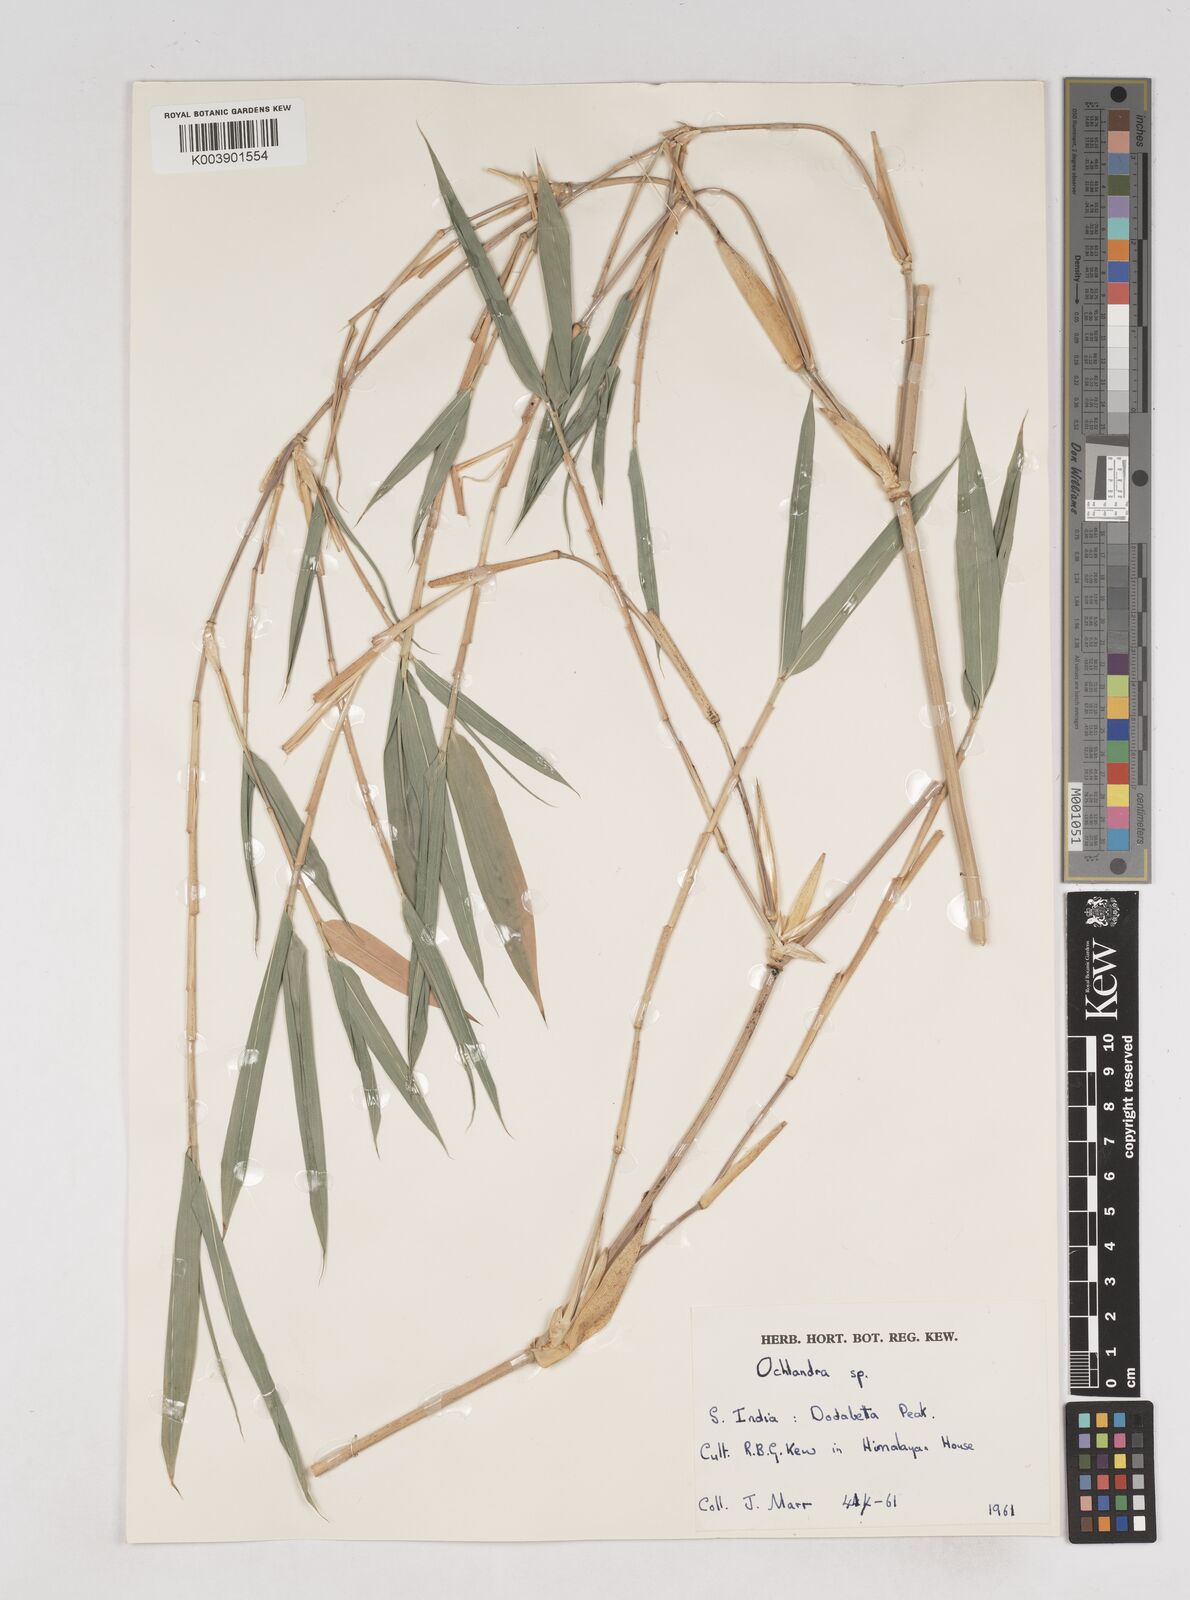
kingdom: Plantae
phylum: Tracheophyta
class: Liliopsida
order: Poales
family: Poaceae
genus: Ochlandra
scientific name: Ochlandra talbotii
